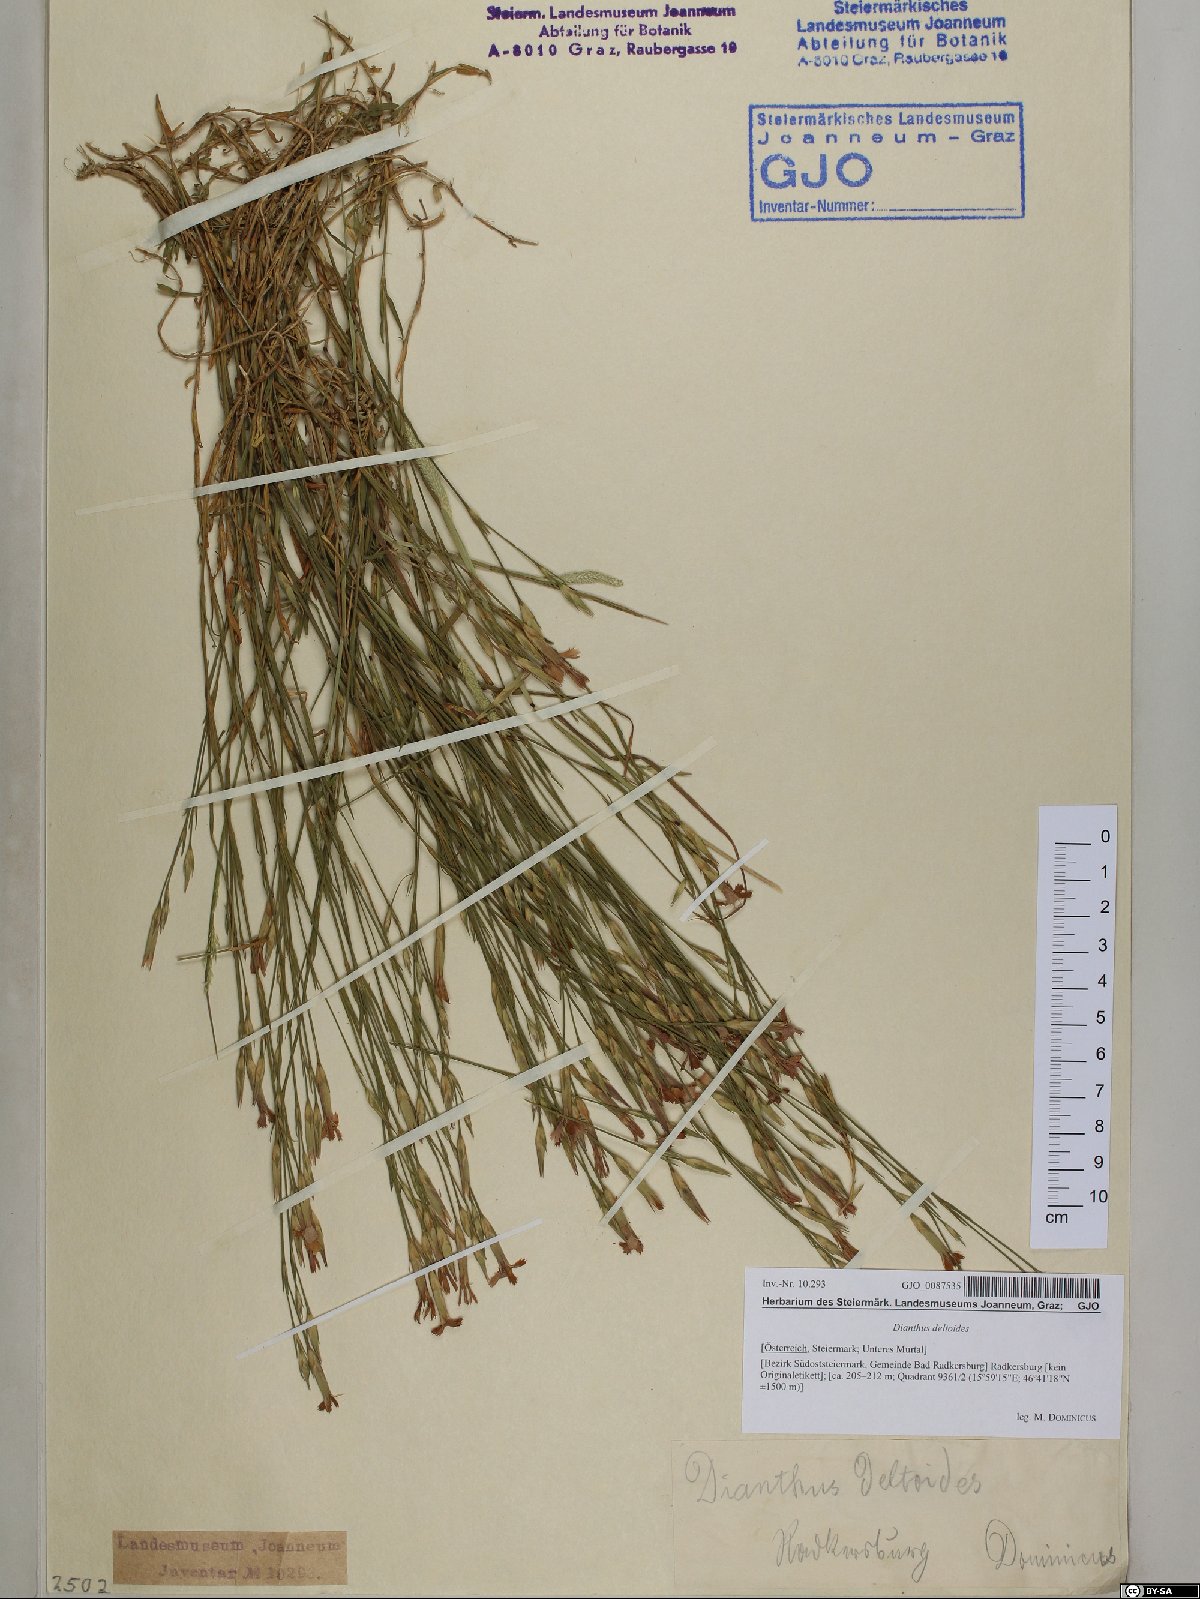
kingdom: Plantae
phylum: Tracheophyta
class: Magnoliopsida
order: Caryophyllales
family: Caryophyllaceae
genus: Dianthus
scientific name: Dianthus deltoides
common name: Maiden pink
